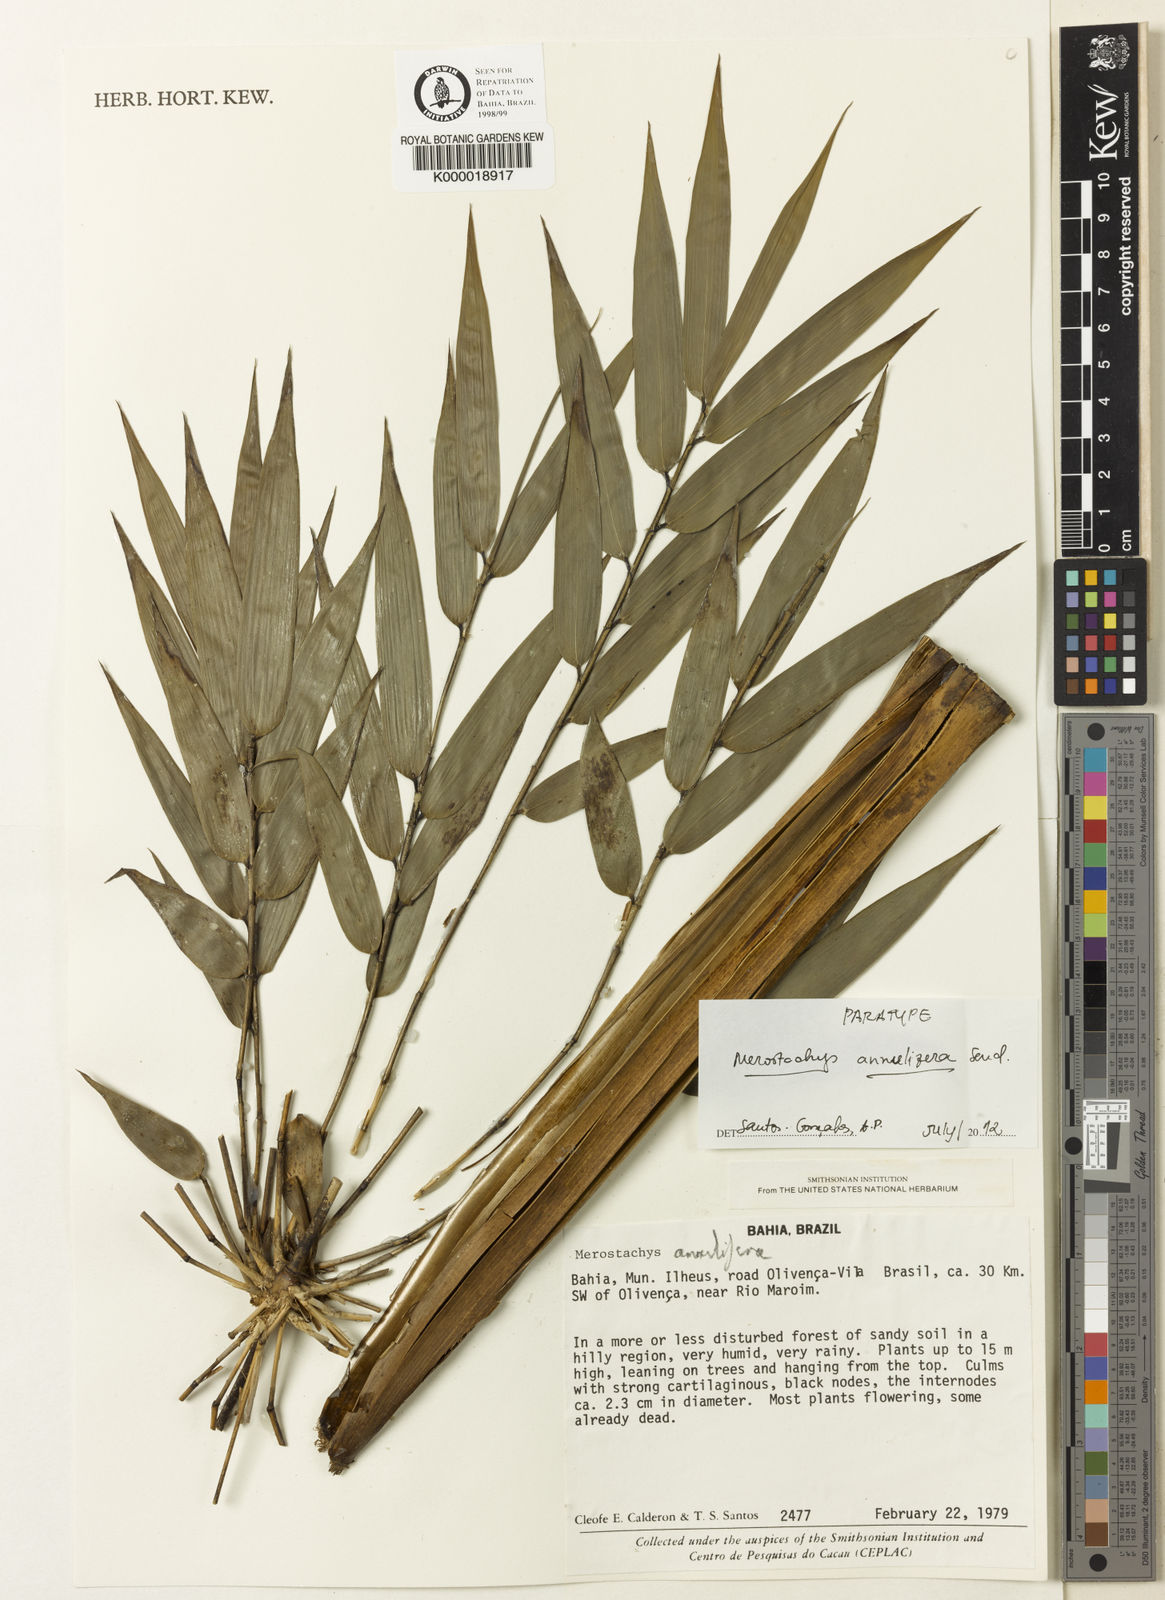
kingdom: Plantae
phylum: Tracheophyta
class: Liliopsida
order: Poales
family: Poaceae
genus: Merostachys
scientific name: Merostachys annulifera
